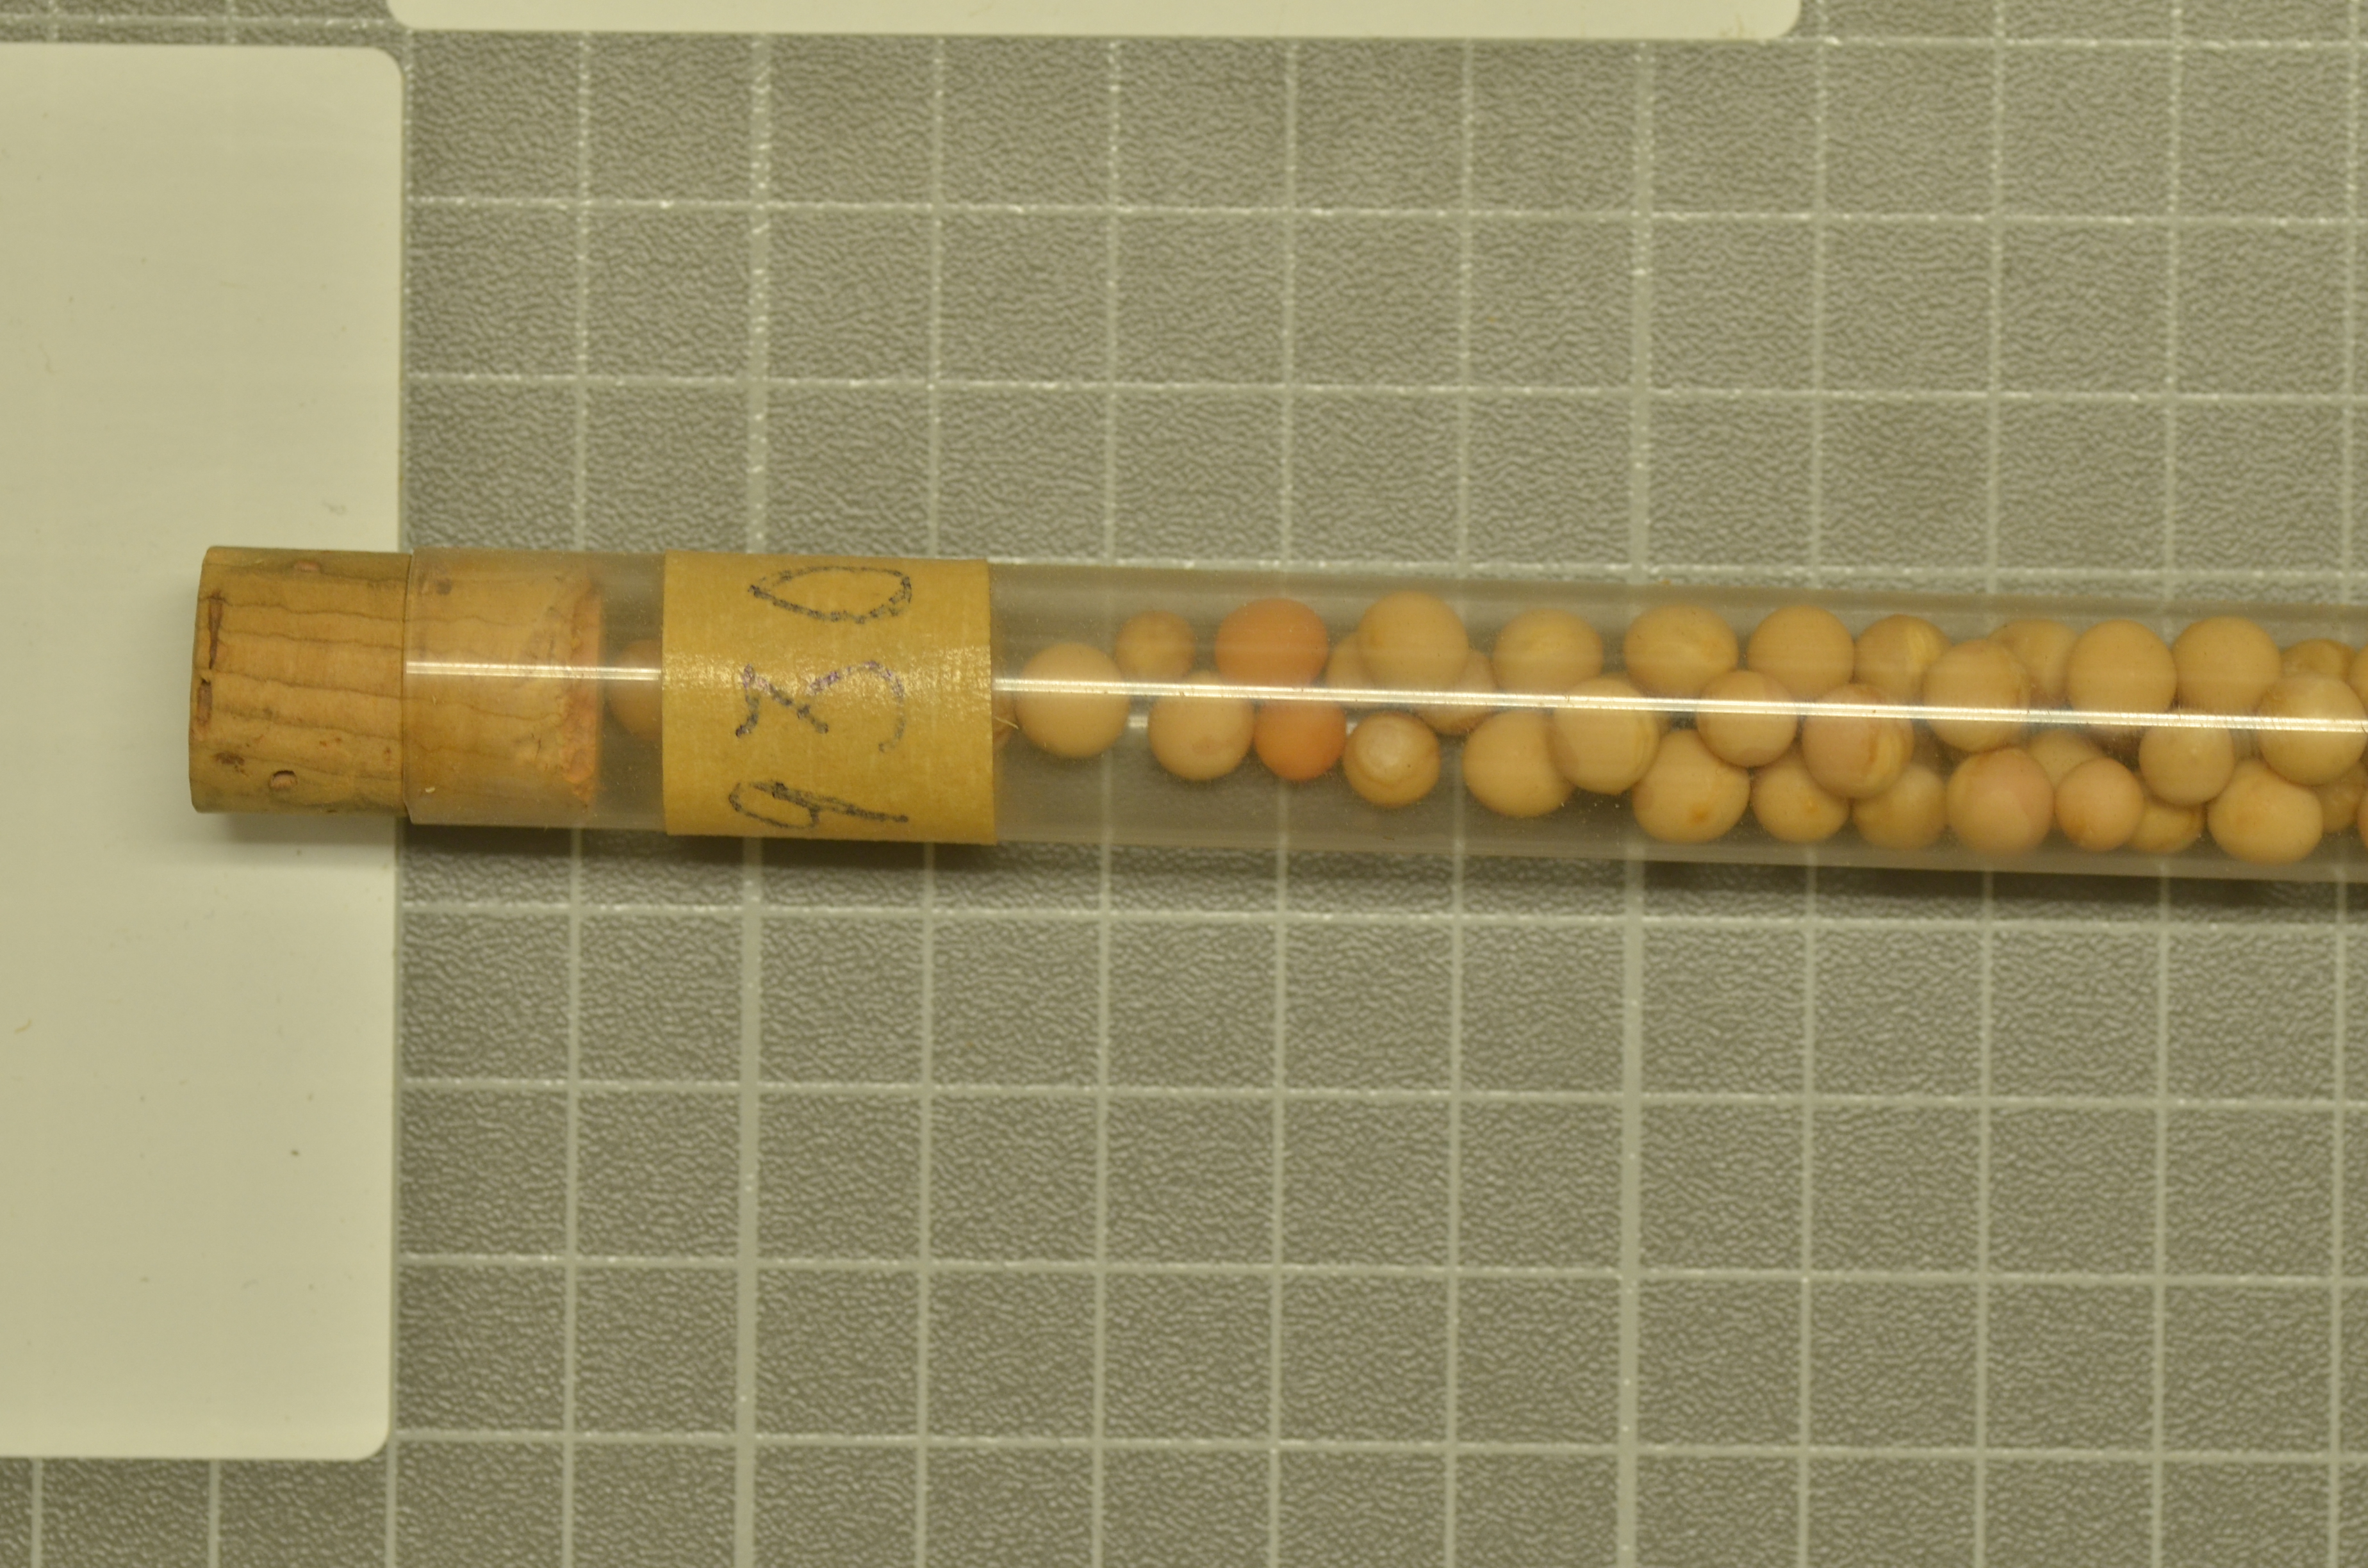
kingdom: Plantae
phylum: Tracheophyta
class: Magnoliopsida
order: Fabales
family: Fabaceae
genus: Lathyrus
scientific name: Lathyrus oleraceus
